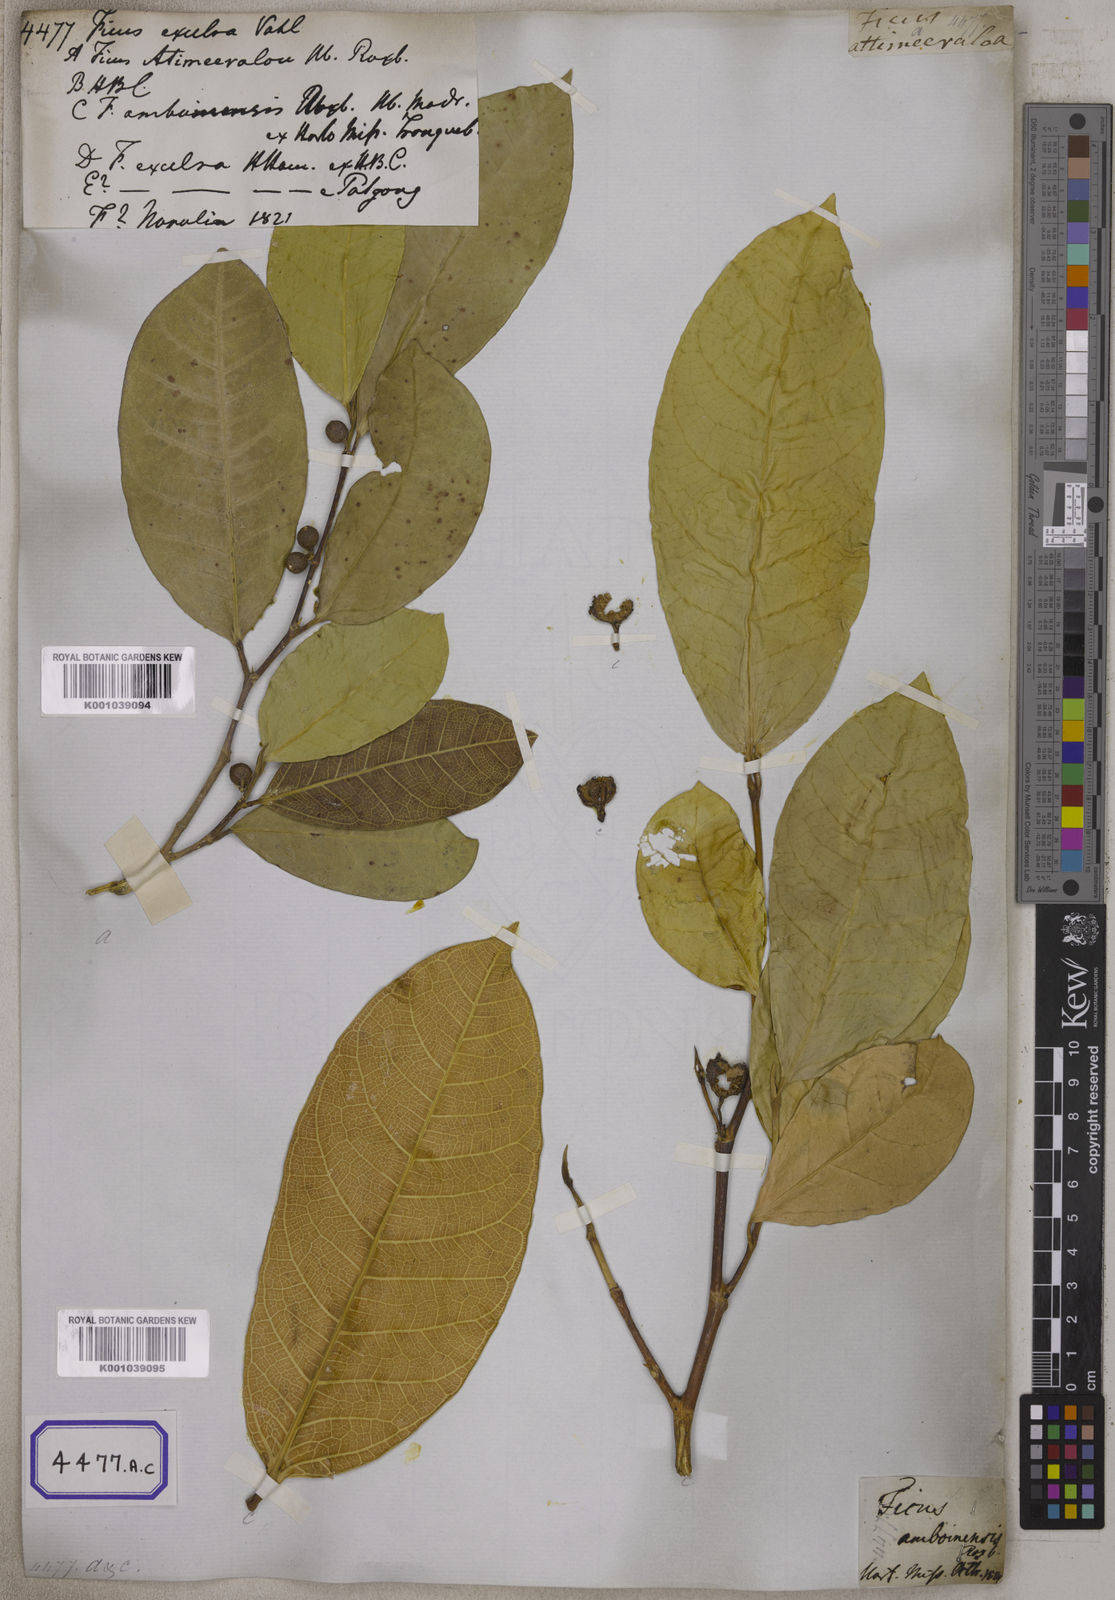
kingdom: Plantae
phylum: Tracheophyta
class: Magnoliopsida
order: Rosales
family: Moraceae
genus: Ficus
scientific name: Ficus tinctoria
